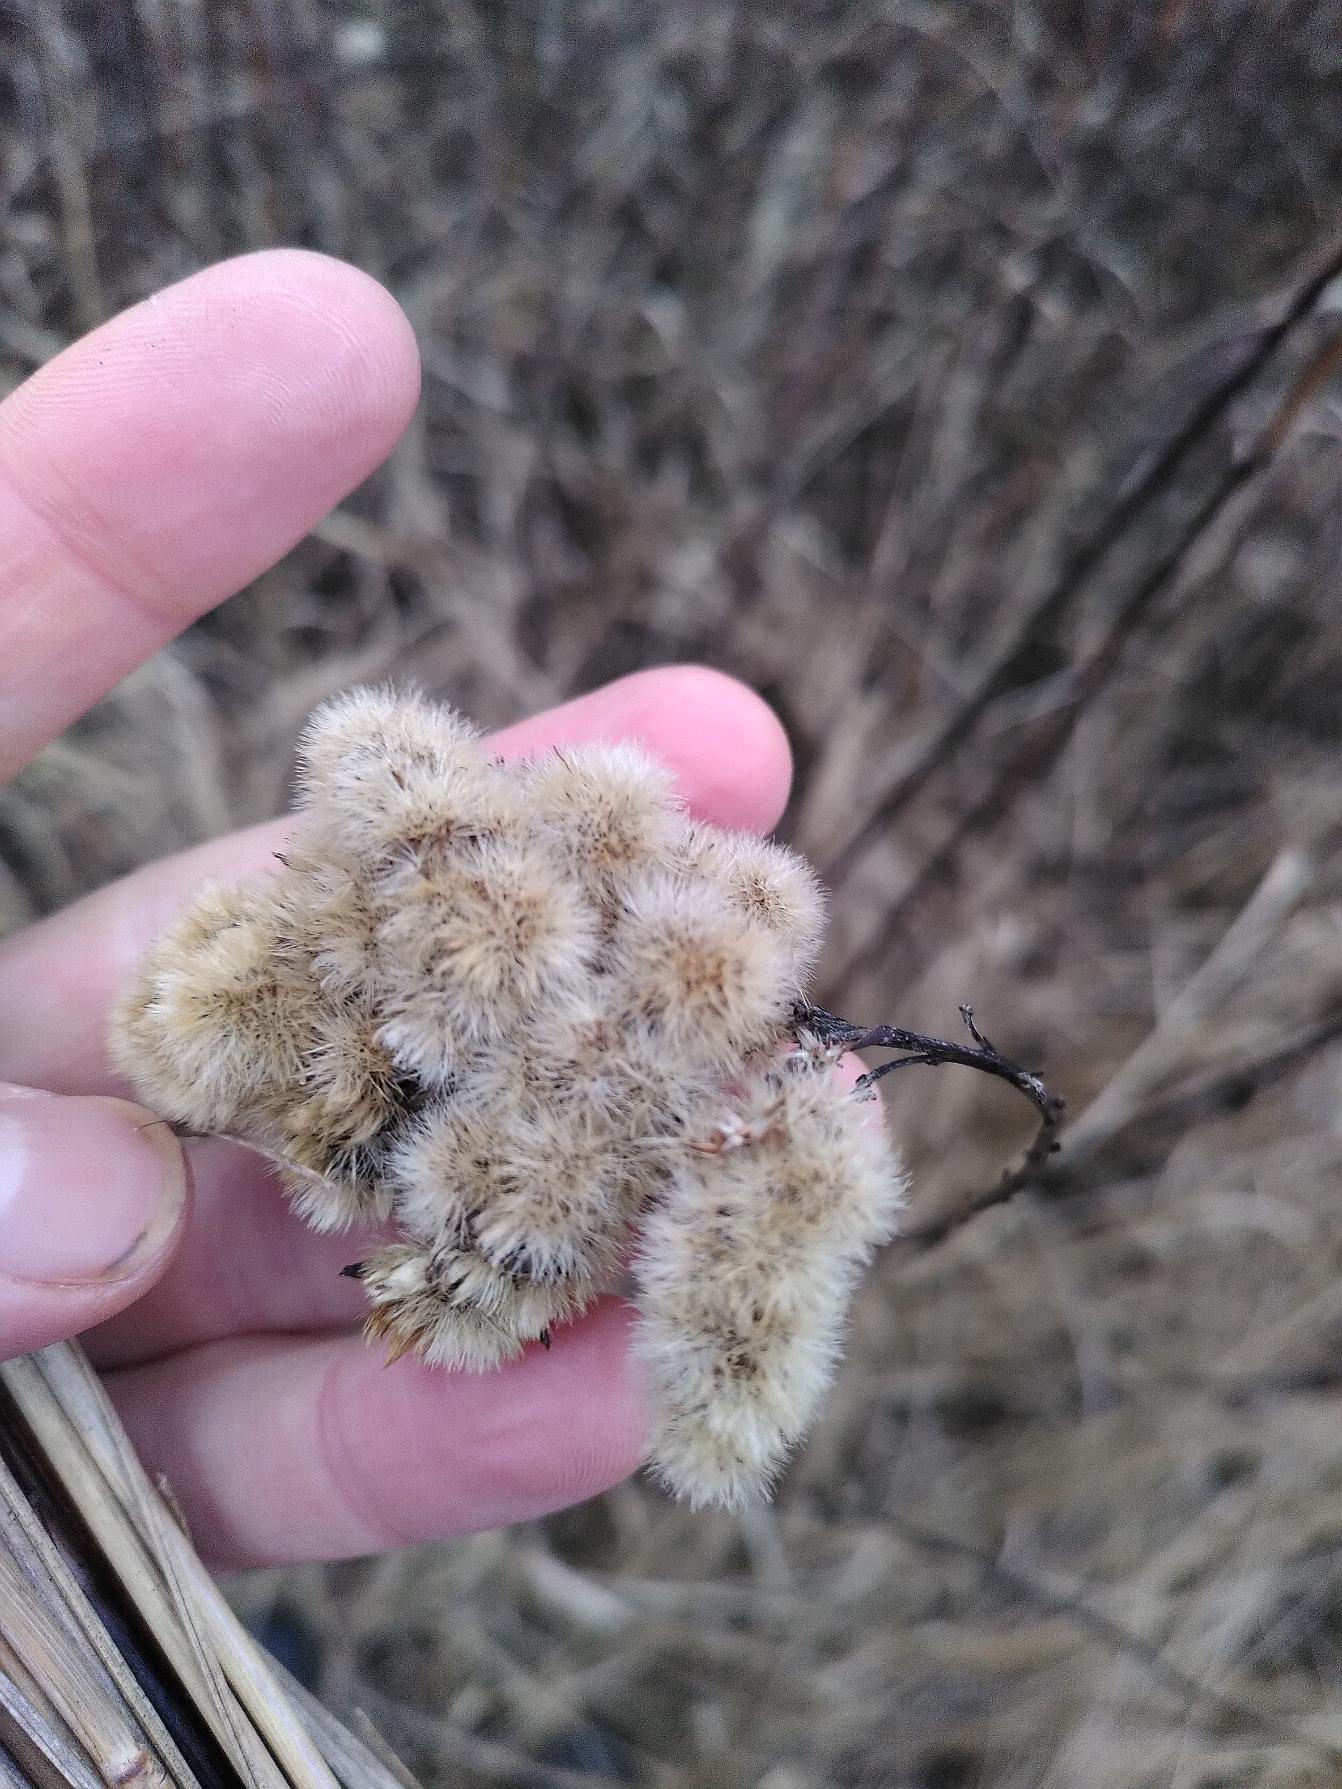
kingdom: Plantae
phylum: Tracheophyta
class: Magnoliopsida
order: Asterales
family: Asteraceae
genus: Solidago
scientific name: Solidago
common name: Gyldenrisslægten
